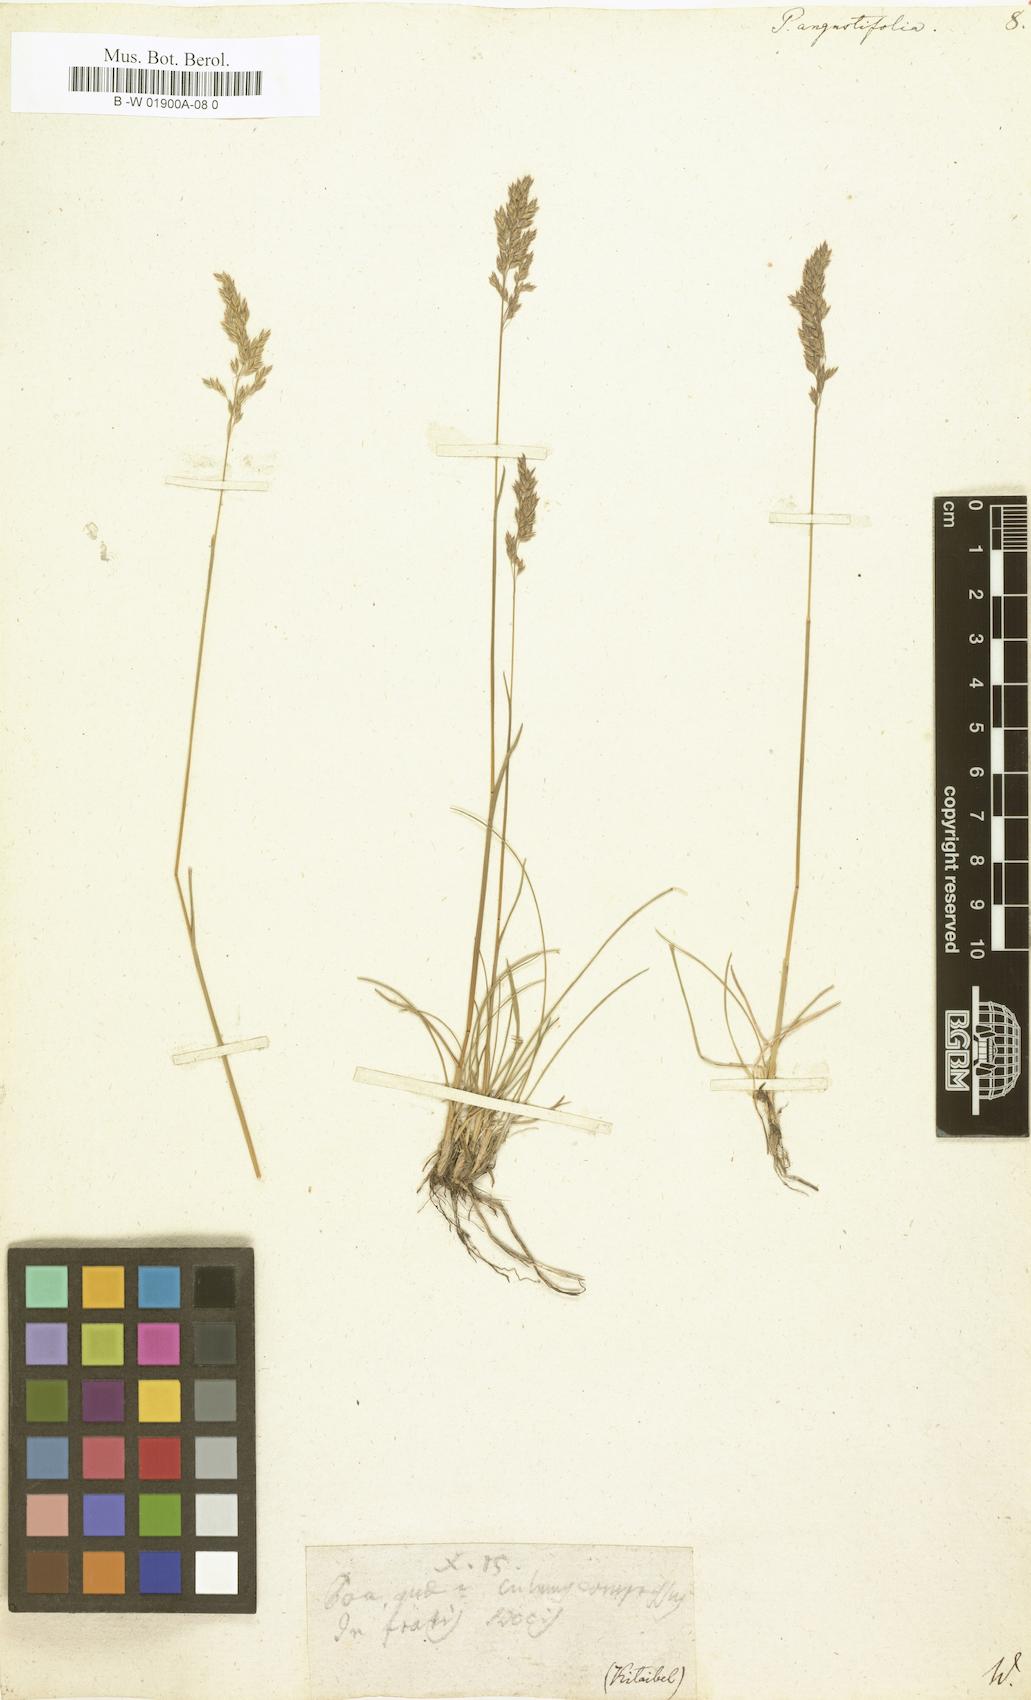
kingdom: Plantae
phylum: Tracheophyta
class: Liliopsida
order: Poales
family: Poaceae
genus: Poa
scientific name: Poa pratensis
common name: Kentucky bluegrass
